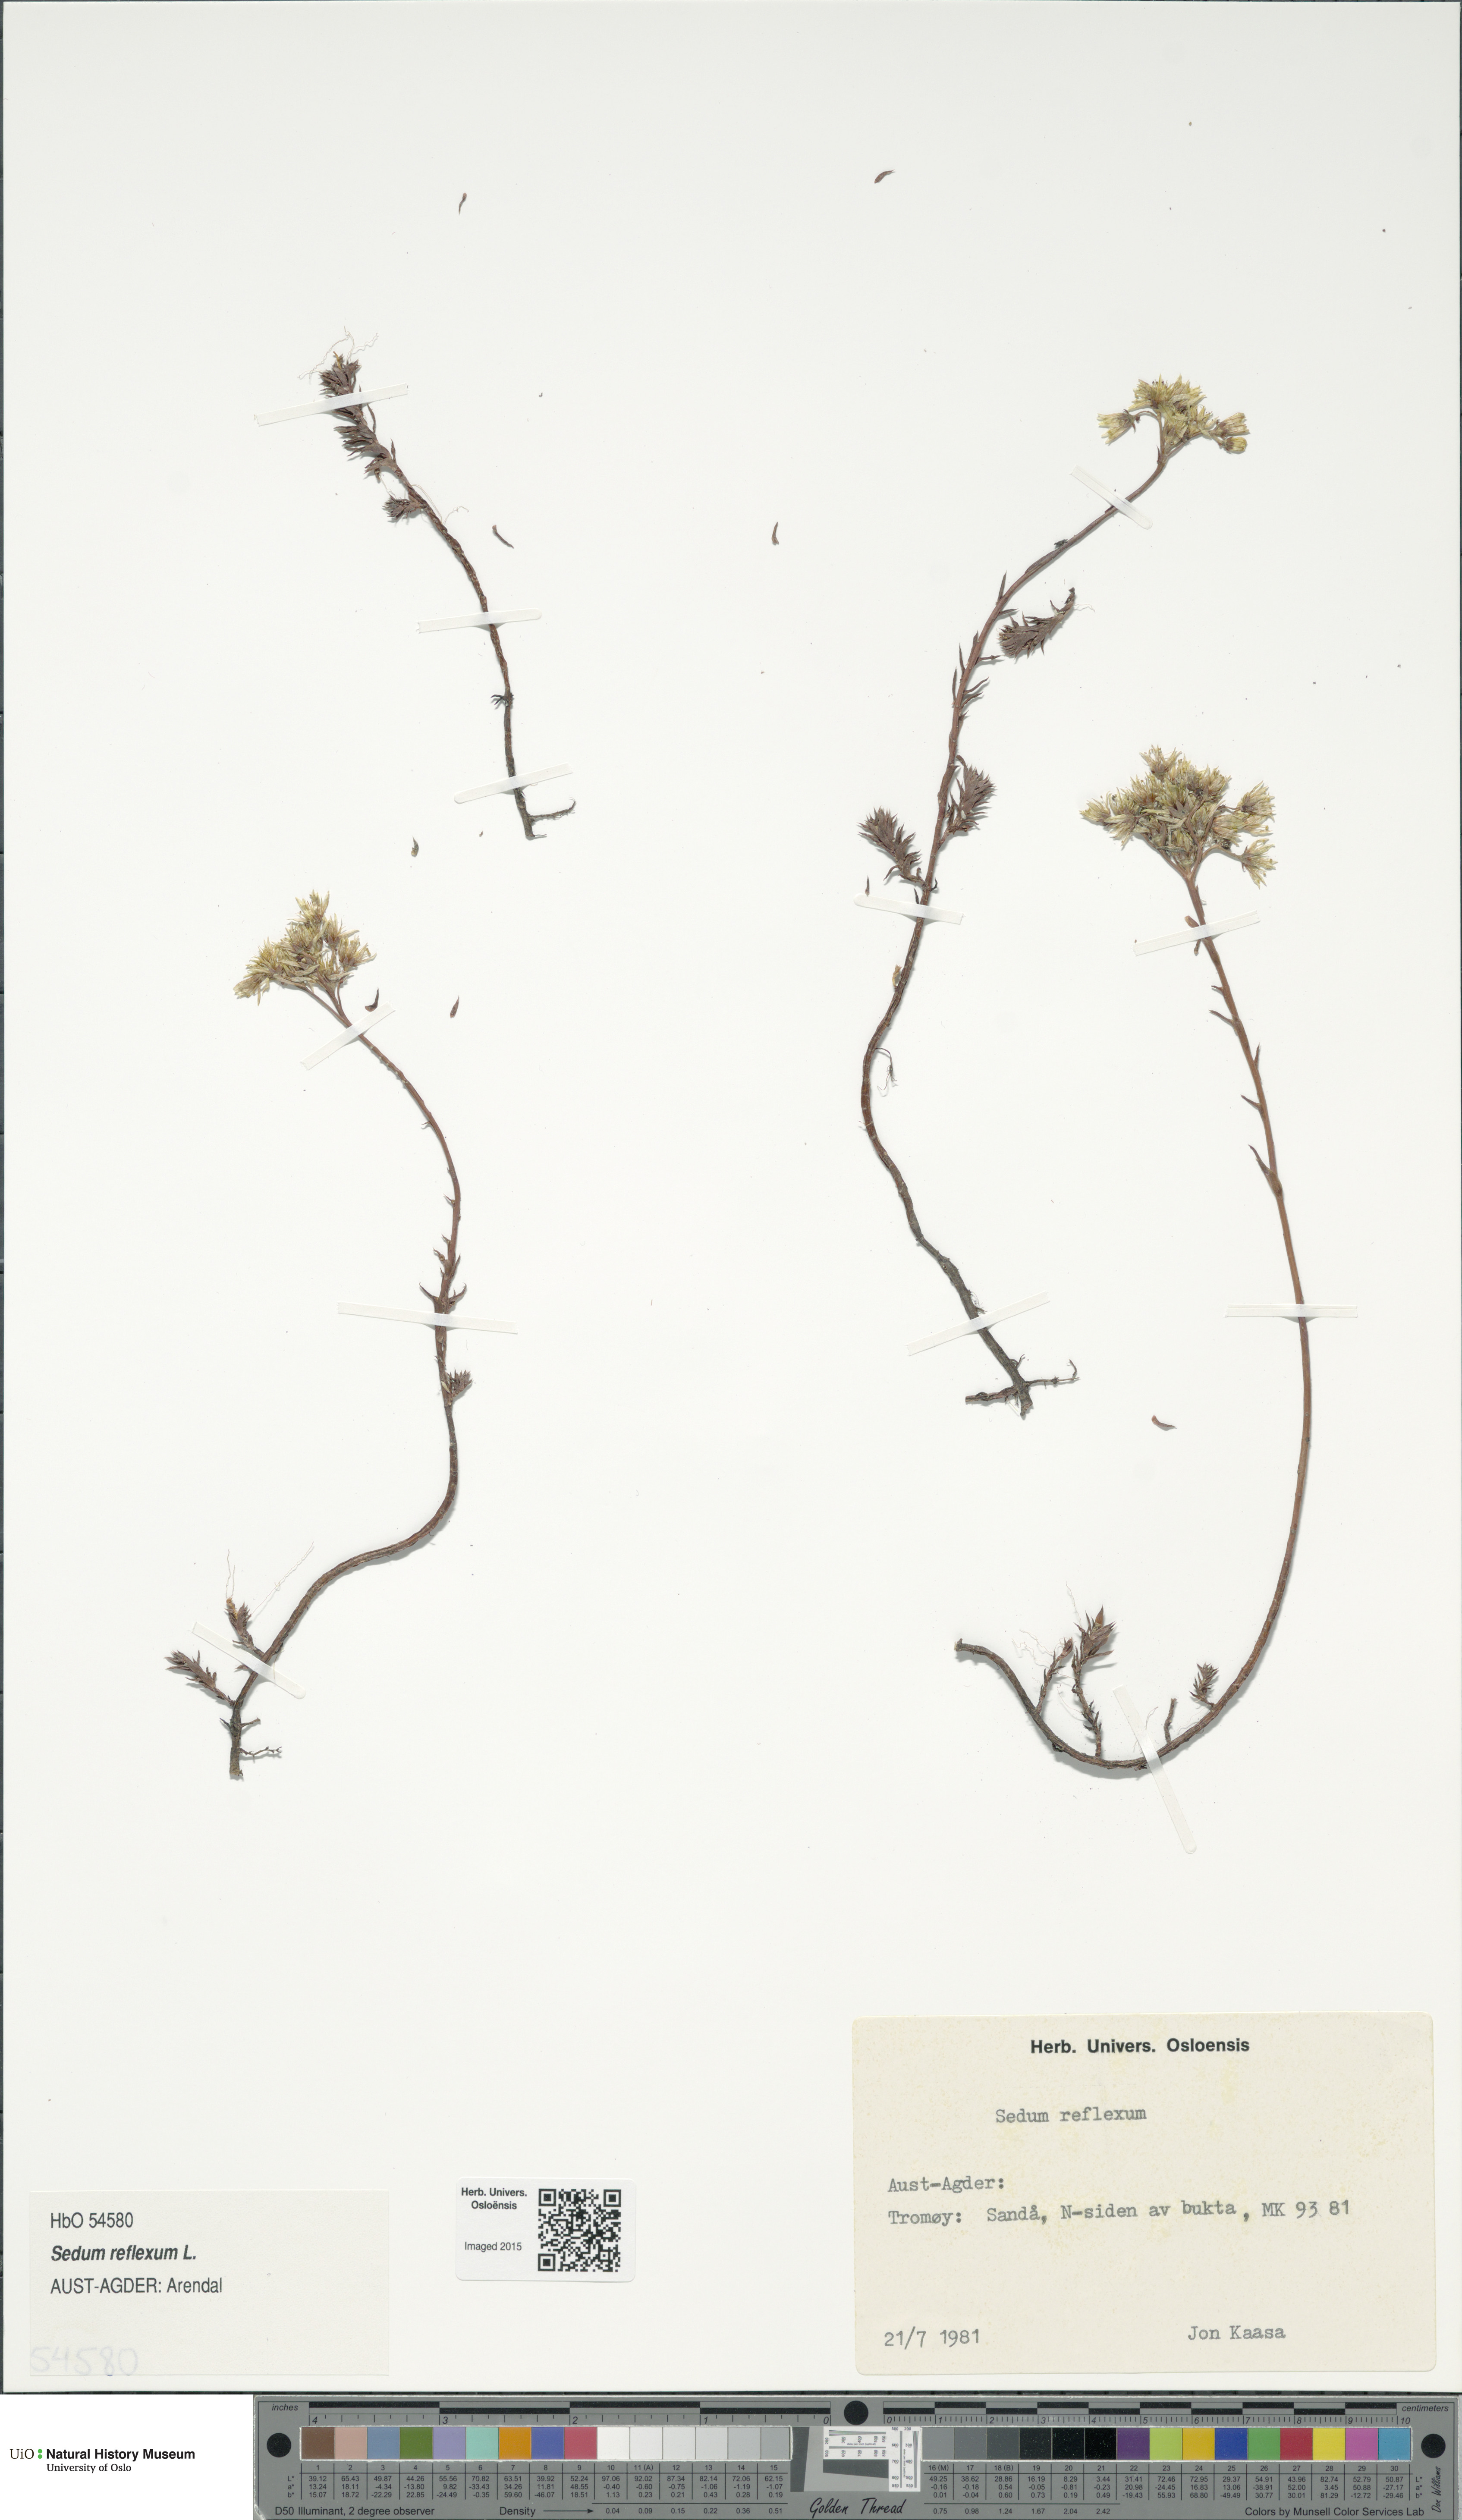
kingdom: Plantae
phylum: Tracheophyta
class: Magnoliopsida
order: Saxifragales
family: Crassulaceae
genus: Petrosedum
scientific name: Petrosedum rupestre
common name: Jenny's stonecrop
